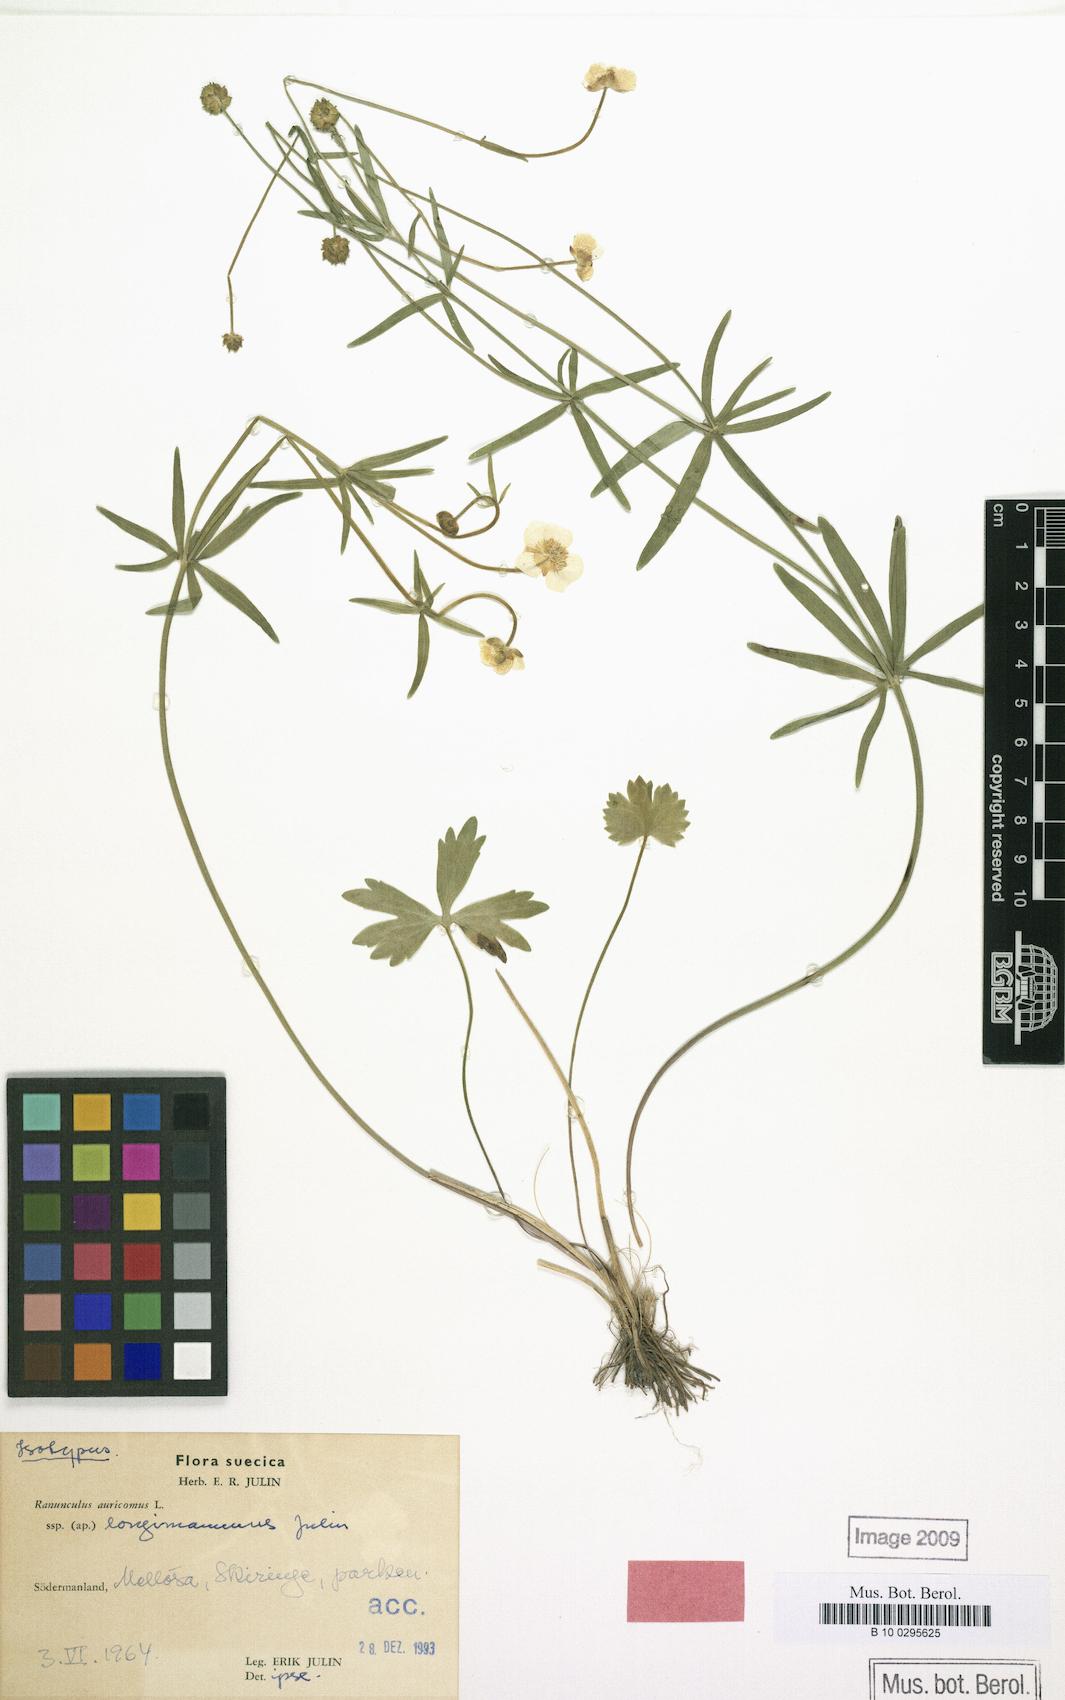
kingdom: Plantae
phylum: Tracheophyta
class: Magnoliopsida
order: Ranunculales
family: Ranunculaceae
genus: Ranunculus
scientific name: Ranunculus longimammus
